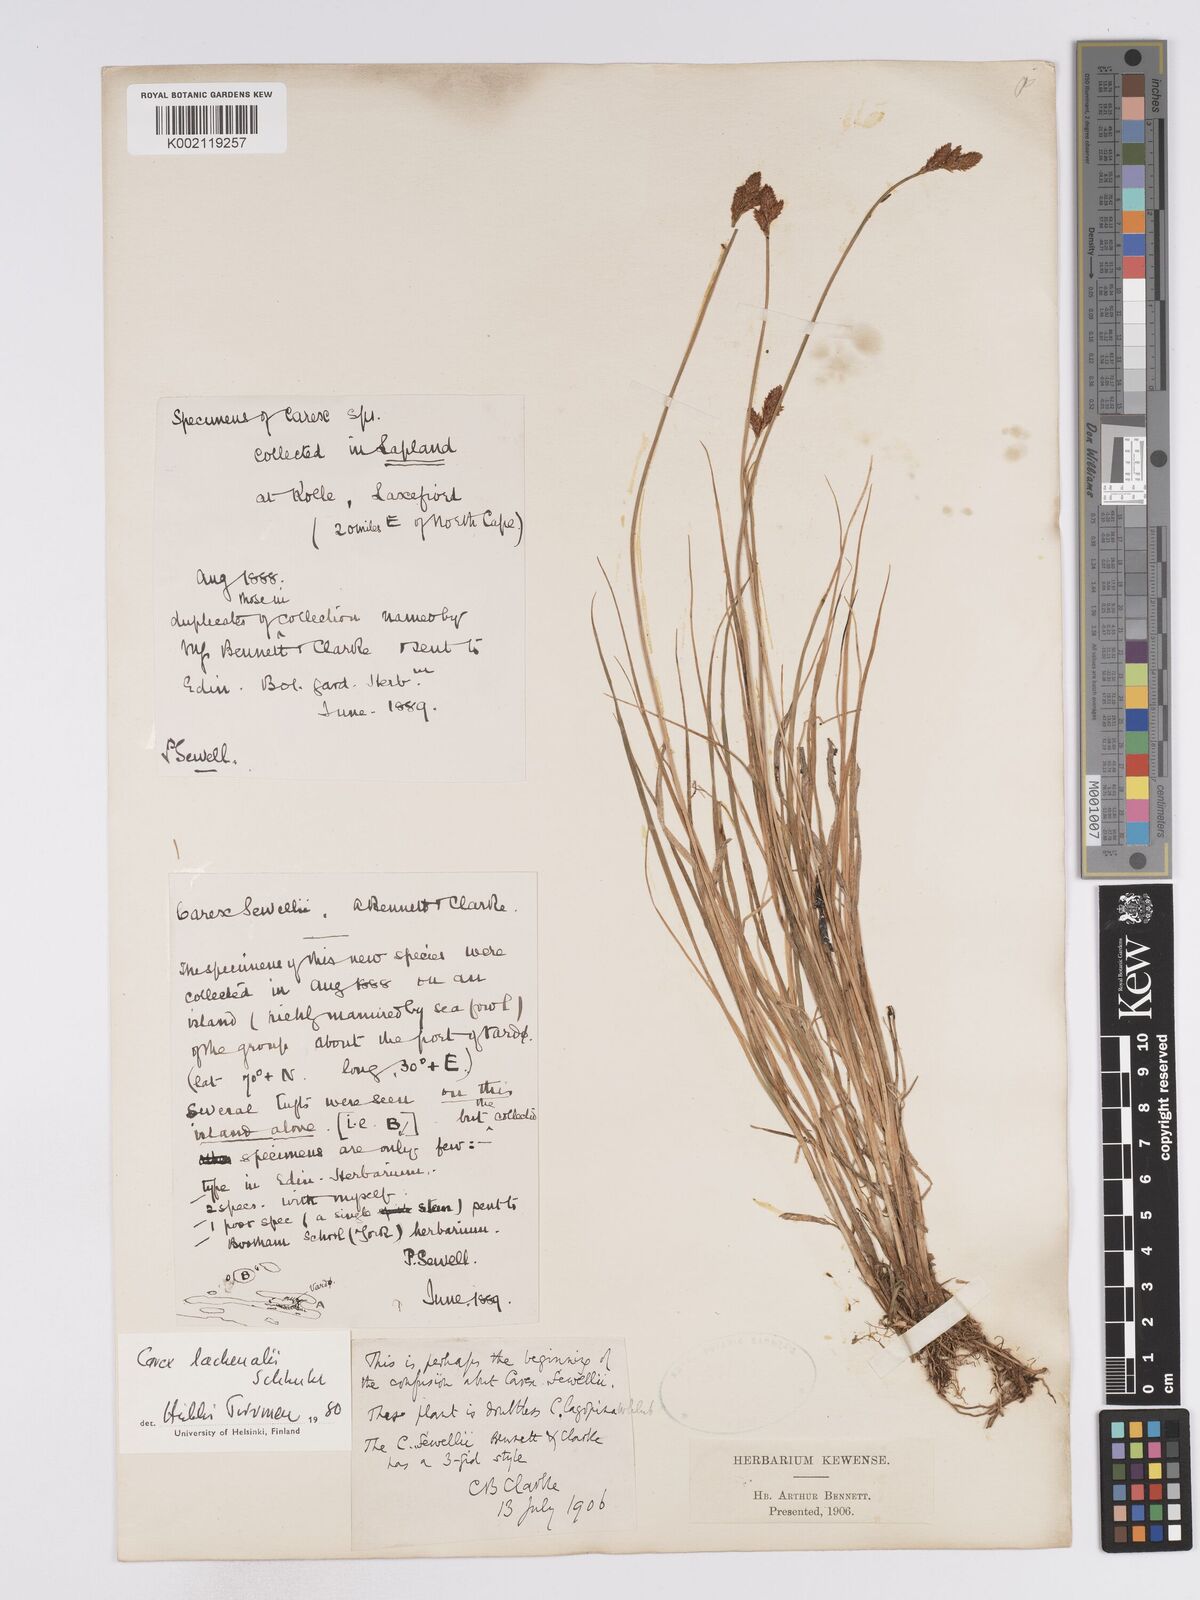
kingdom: Plantae
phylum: Tracheophyta
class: Liliopsida
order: Poales
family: Cyperaceae
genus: Carex
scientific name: Carex lachenalii
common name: Hare's-foot sedge
